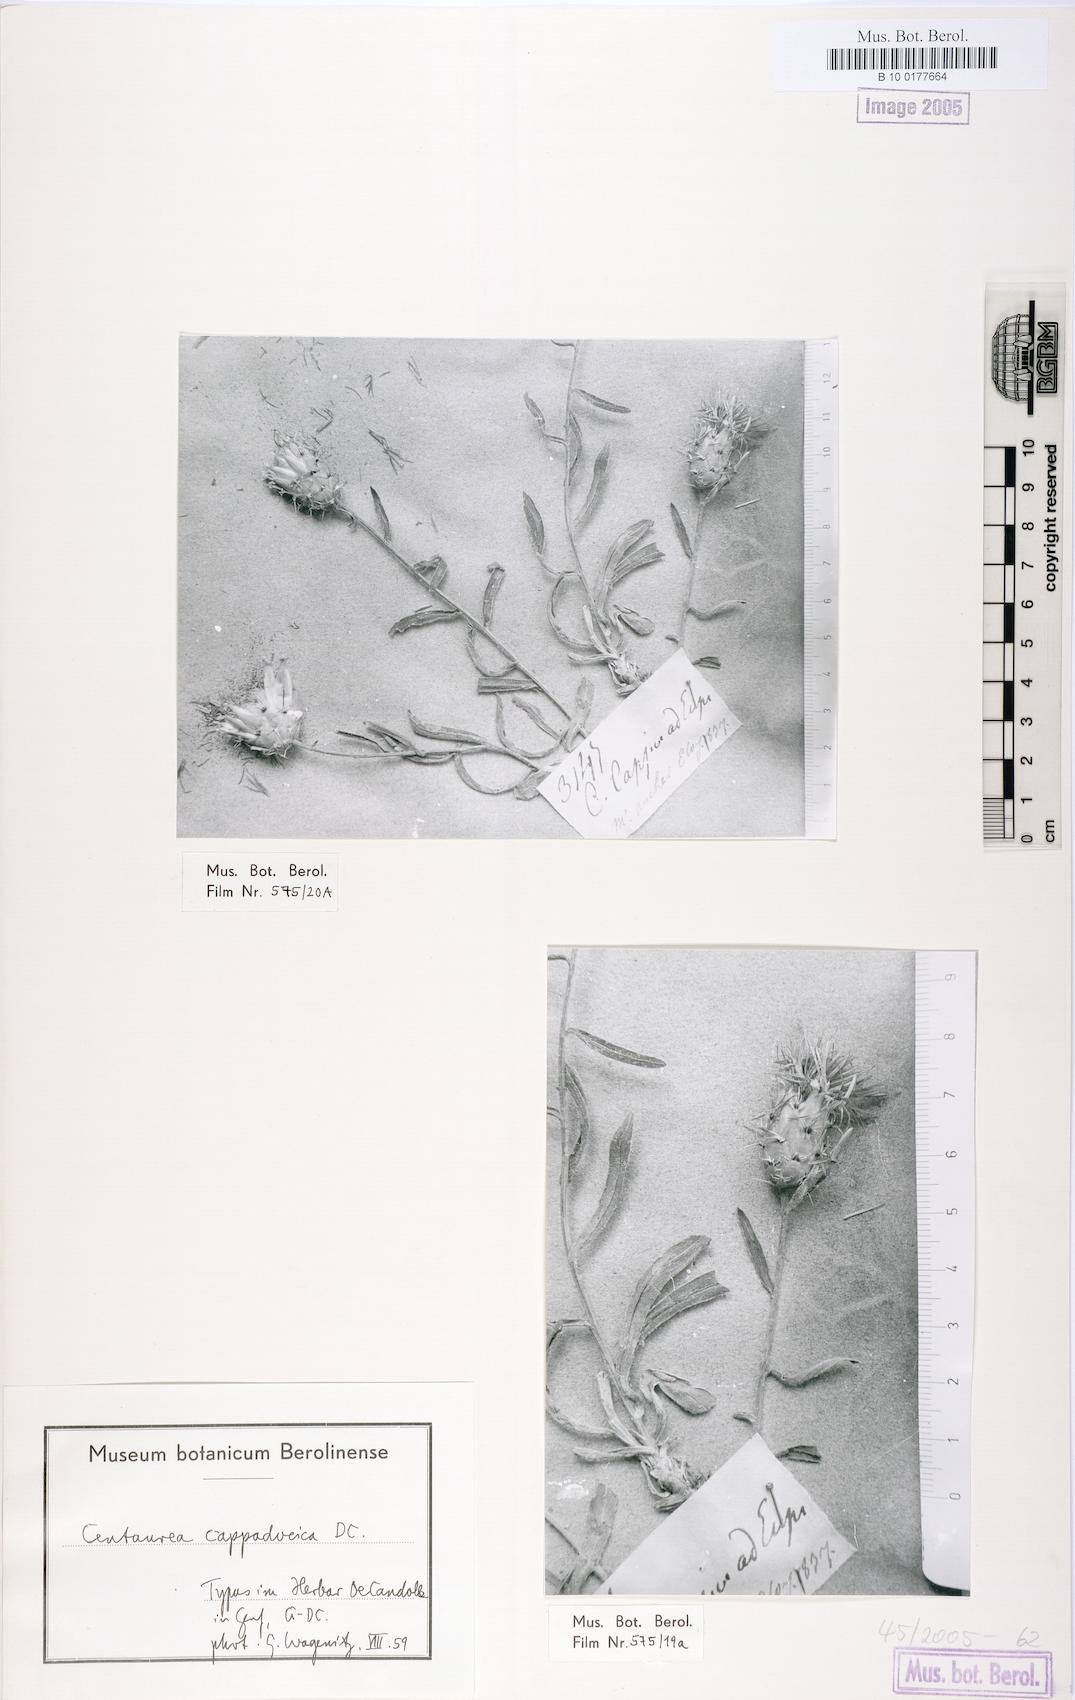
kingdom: Plantae
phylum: Tracheophyta
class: Magnoliopsida
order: Asterales
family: Asteraceae
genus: Centaurea
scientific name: Centaurea drabifolia
